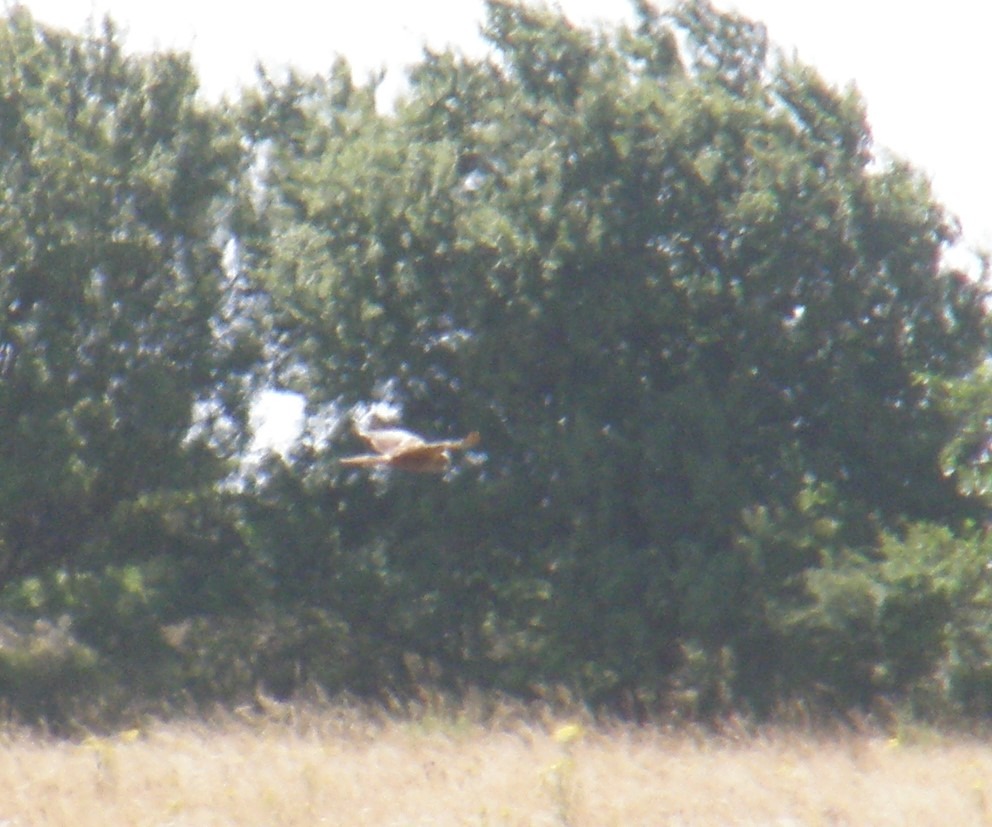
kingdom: Animalia
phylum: Chordata
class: Aves
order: Accipitriformes
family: Accipitridae
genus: Circus
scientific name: Circus aeruginosus
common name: Rørhøg
